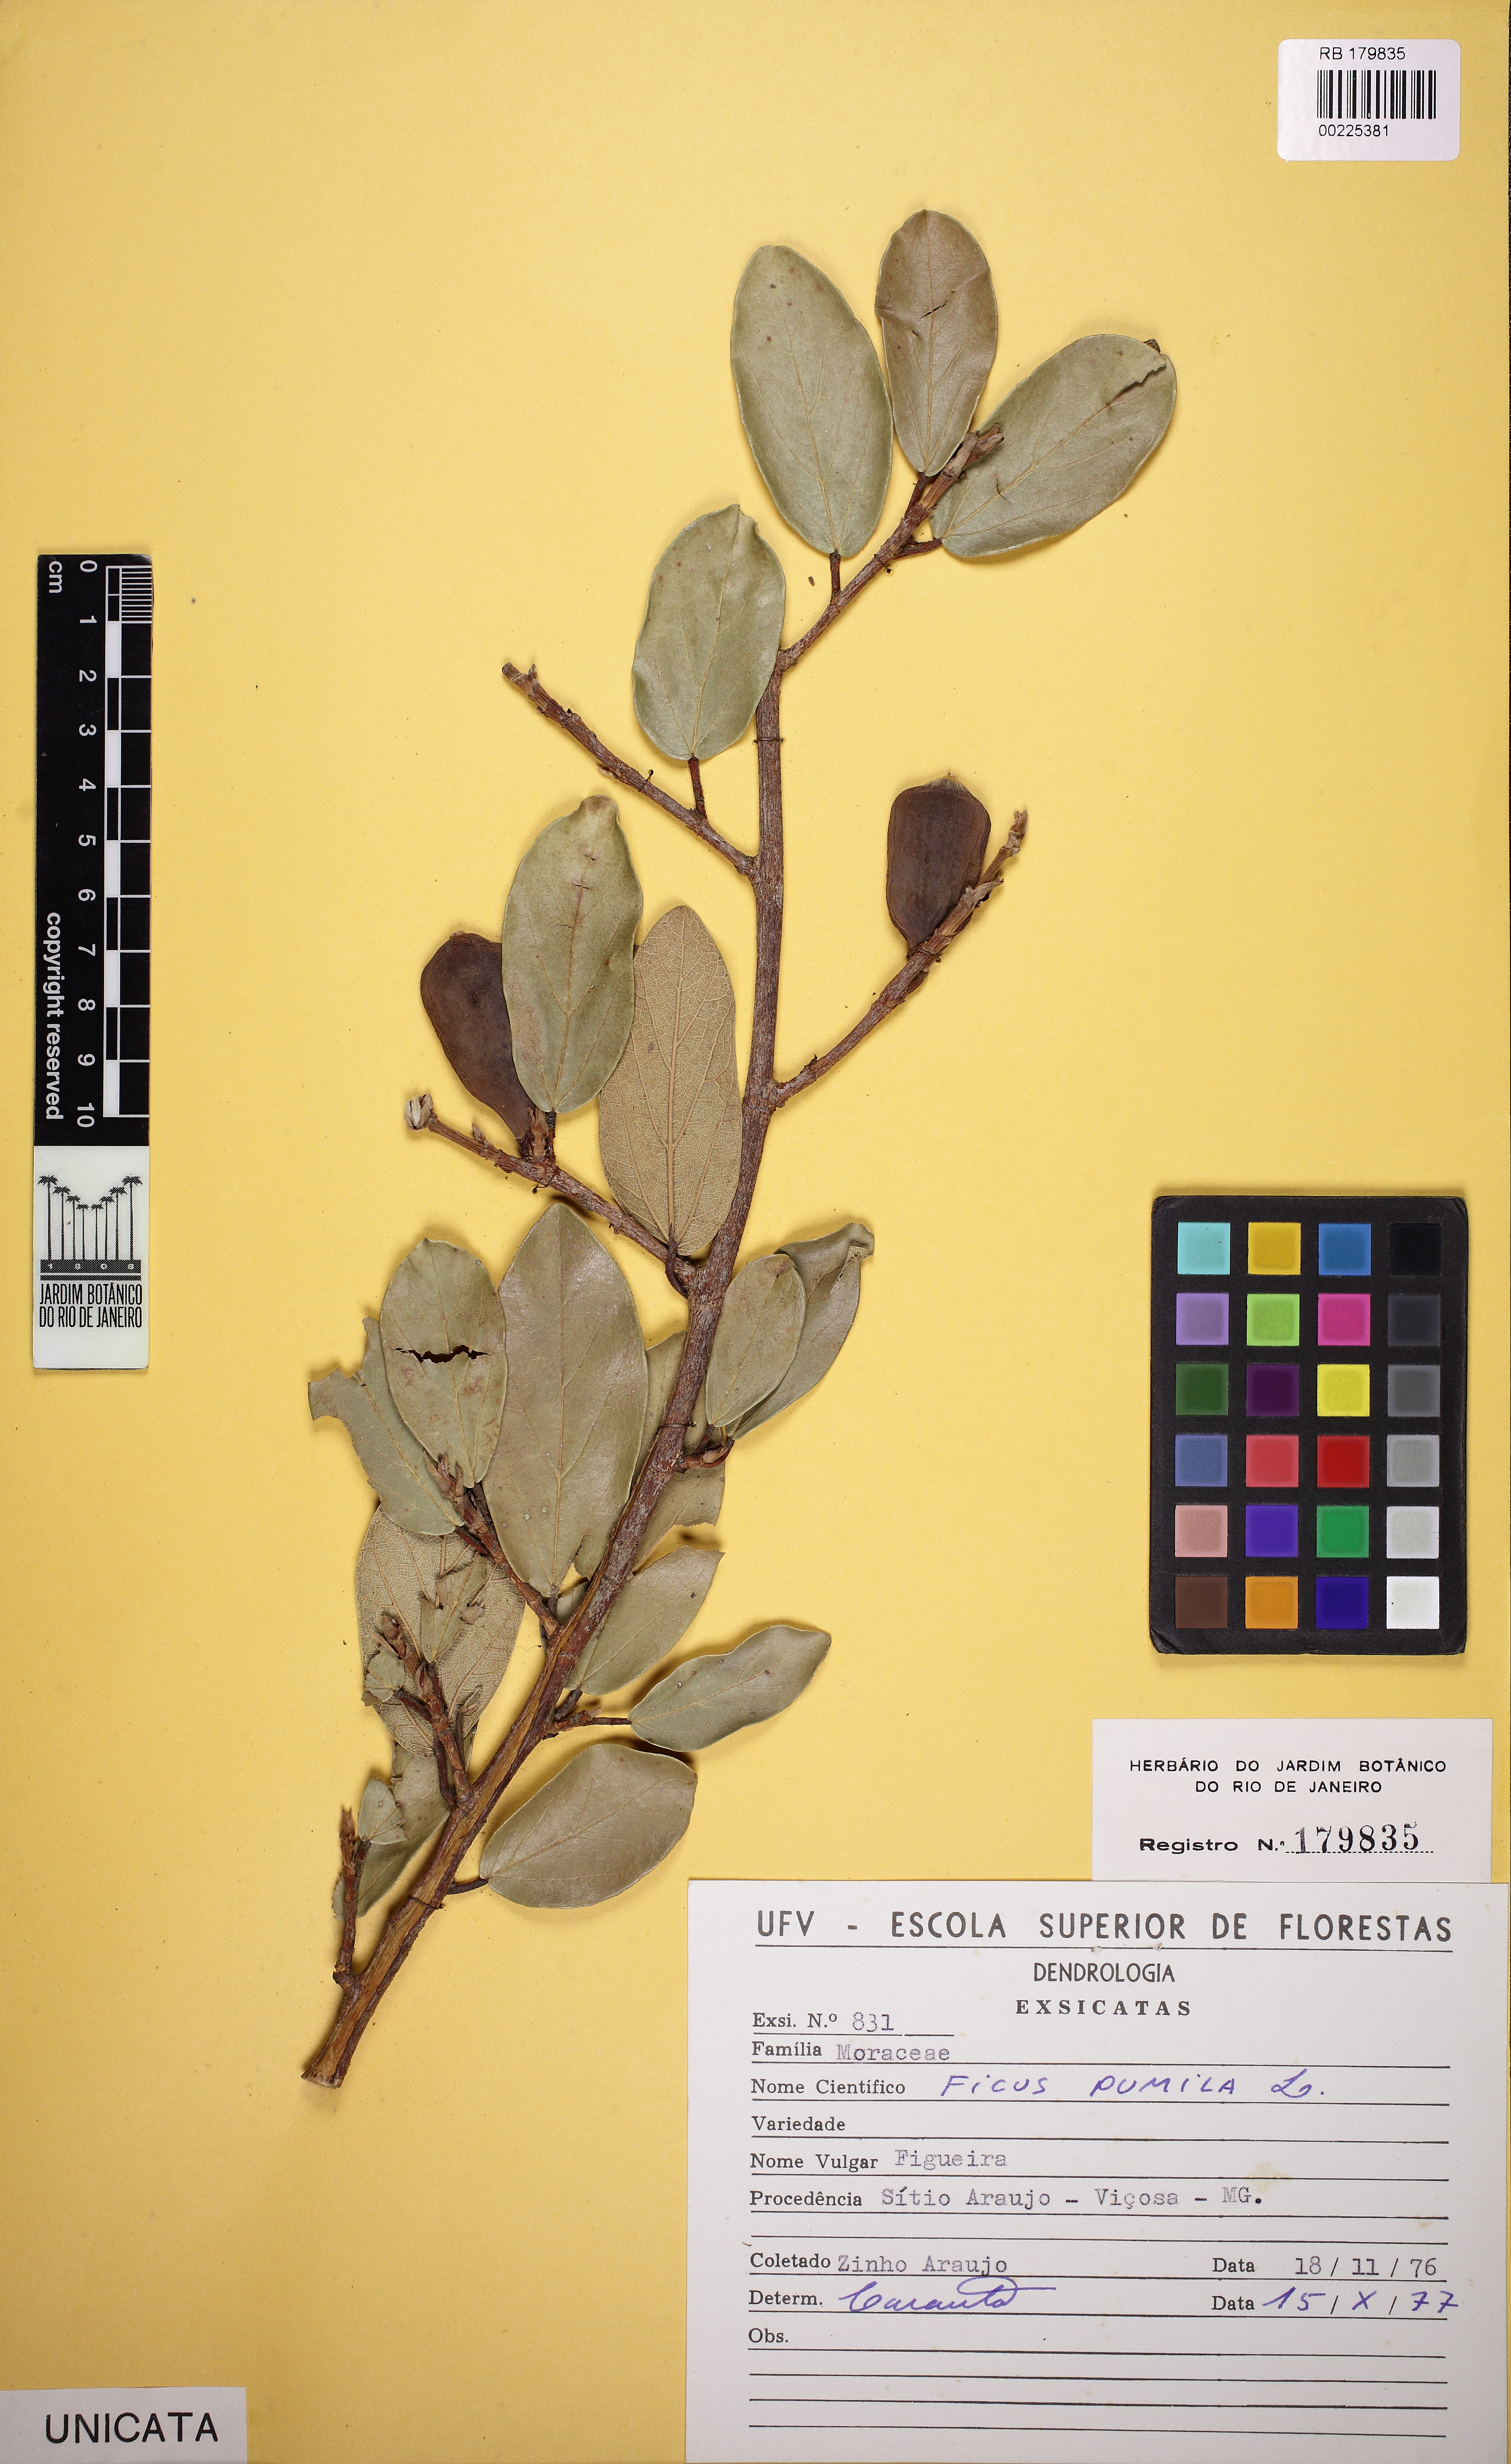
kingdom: Plantae
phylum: Tracheophyta
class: Magnoliopsida
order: Rosales
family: Moraceae
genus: Ficus
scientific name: Ficus pumila
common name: Climbingfig
